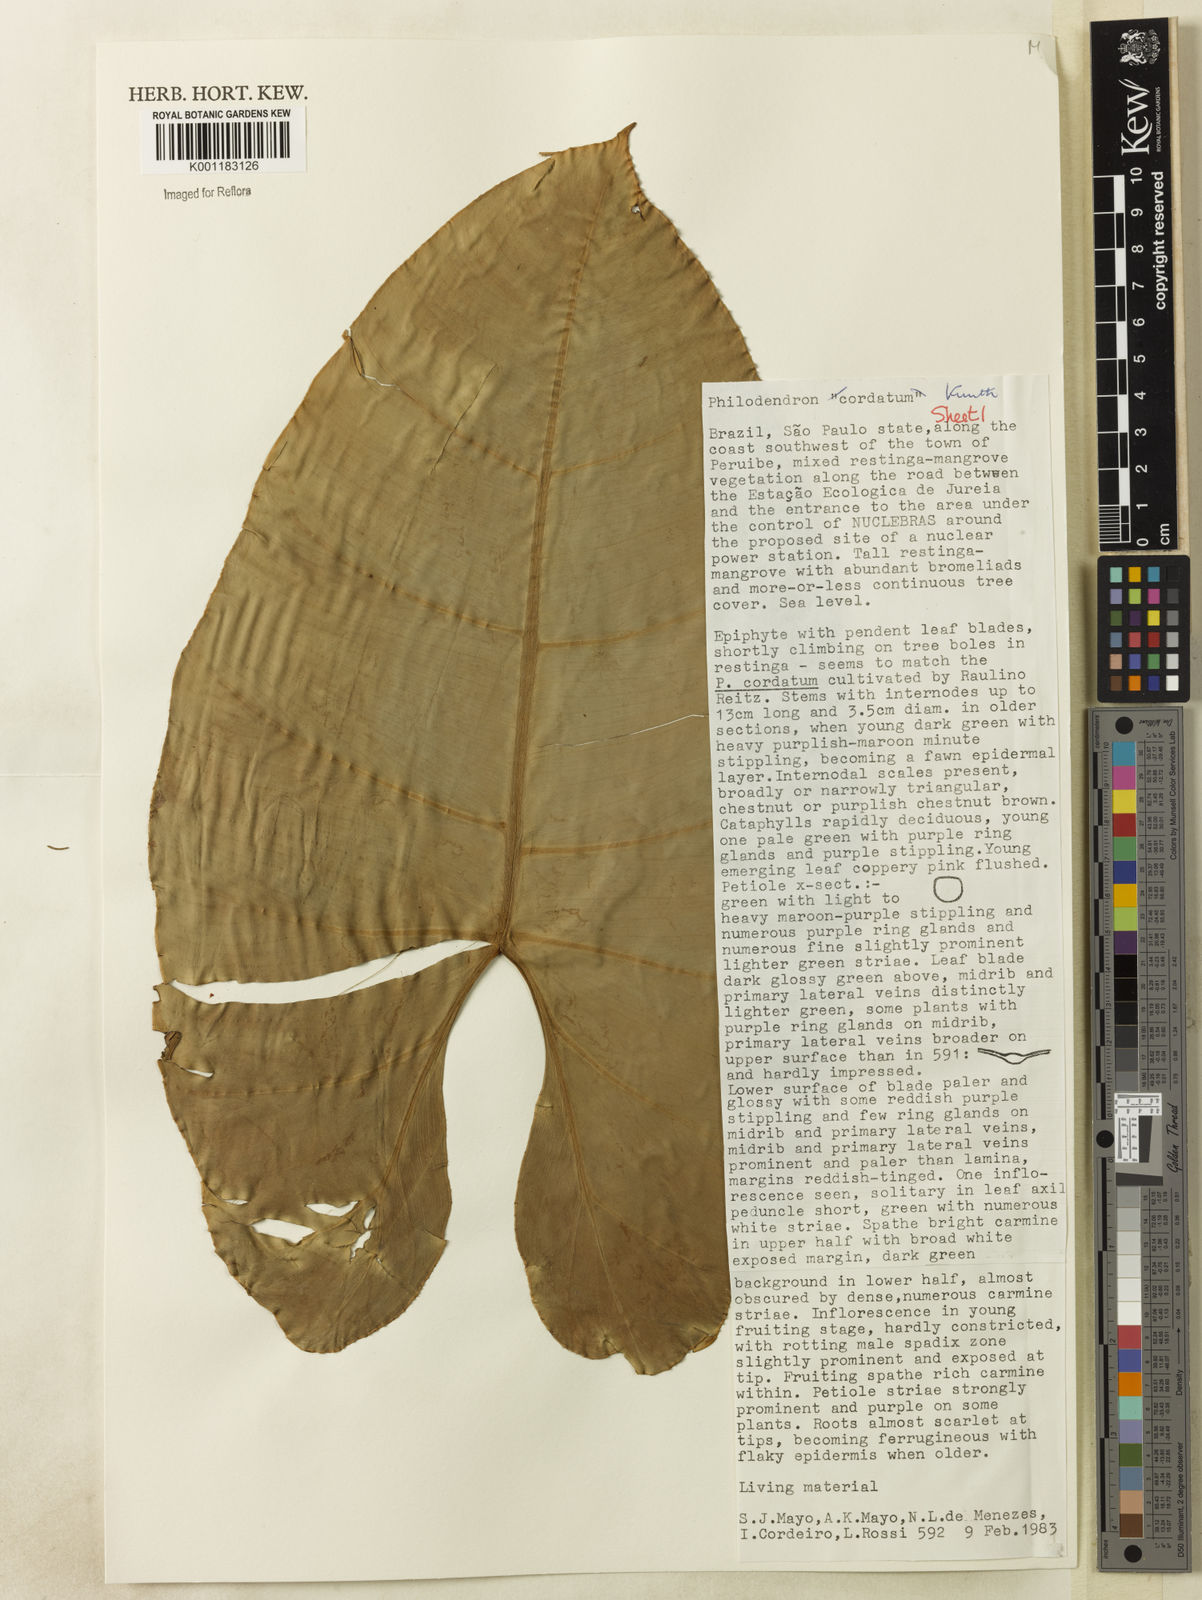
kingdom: Plantae
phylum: Tracheophyta
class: Liliopsida
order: Alismatales
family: Araceae
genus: Philodendron
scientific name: Philodendron cordatum
